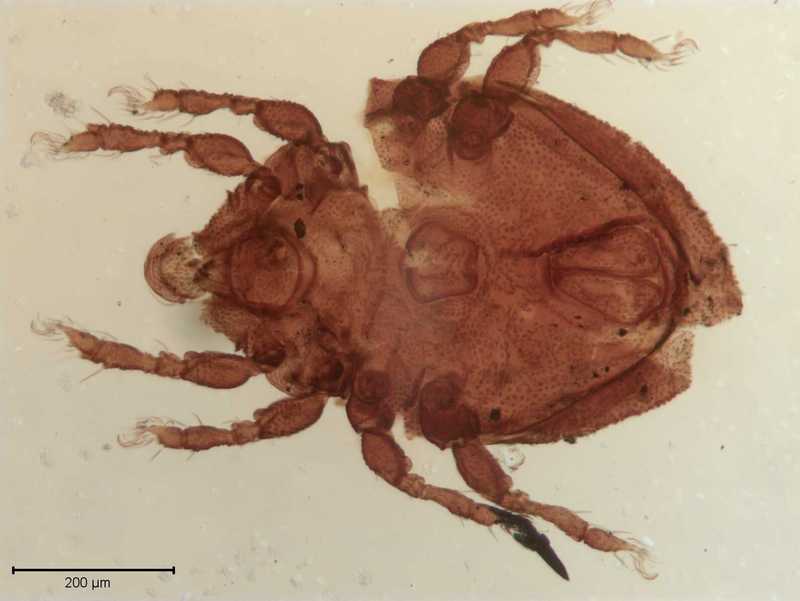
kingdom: Animalia
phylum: Arthropoda
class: Arachnida
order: Sarcoptiformes
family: Scutoverticidae
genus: Scutovertex
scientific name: Scutovertex minutus
